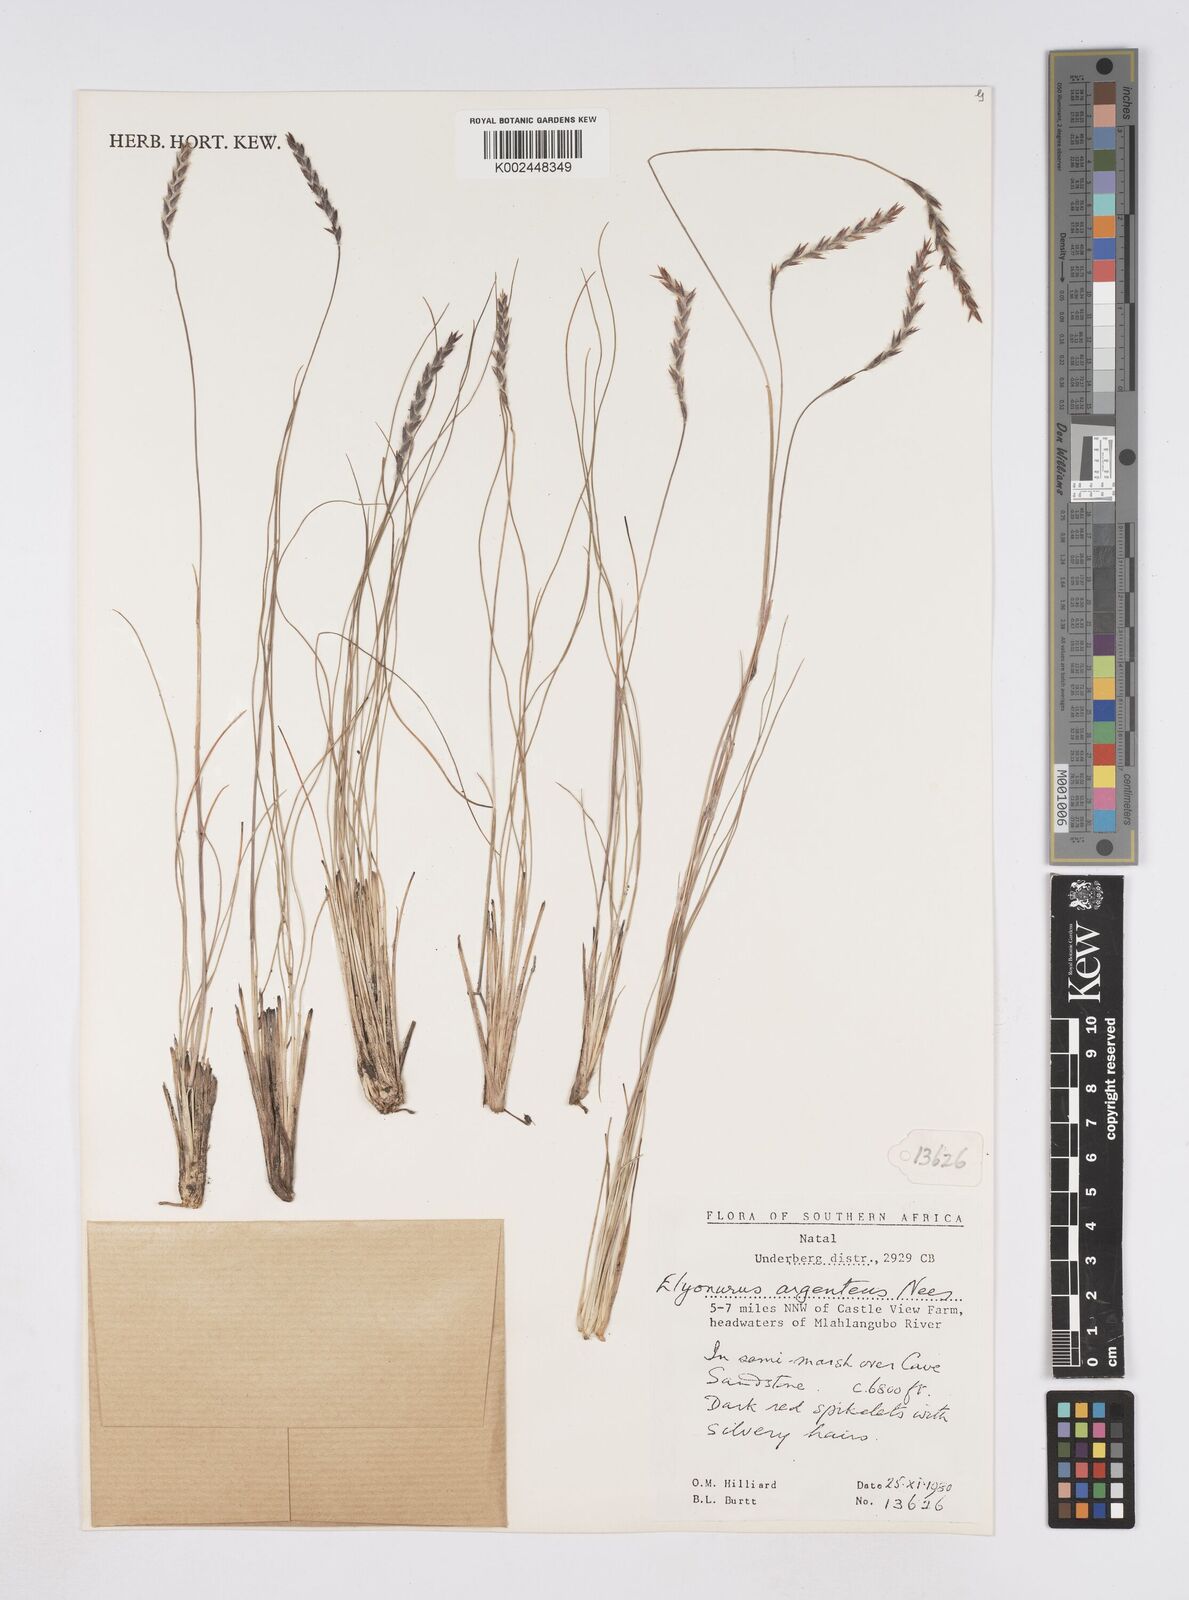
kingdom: Plantae
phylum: Tracheophyta
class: Liliopsida
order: Poales
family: Poaceae
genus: Elionurus
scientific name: Elionurus muticus
